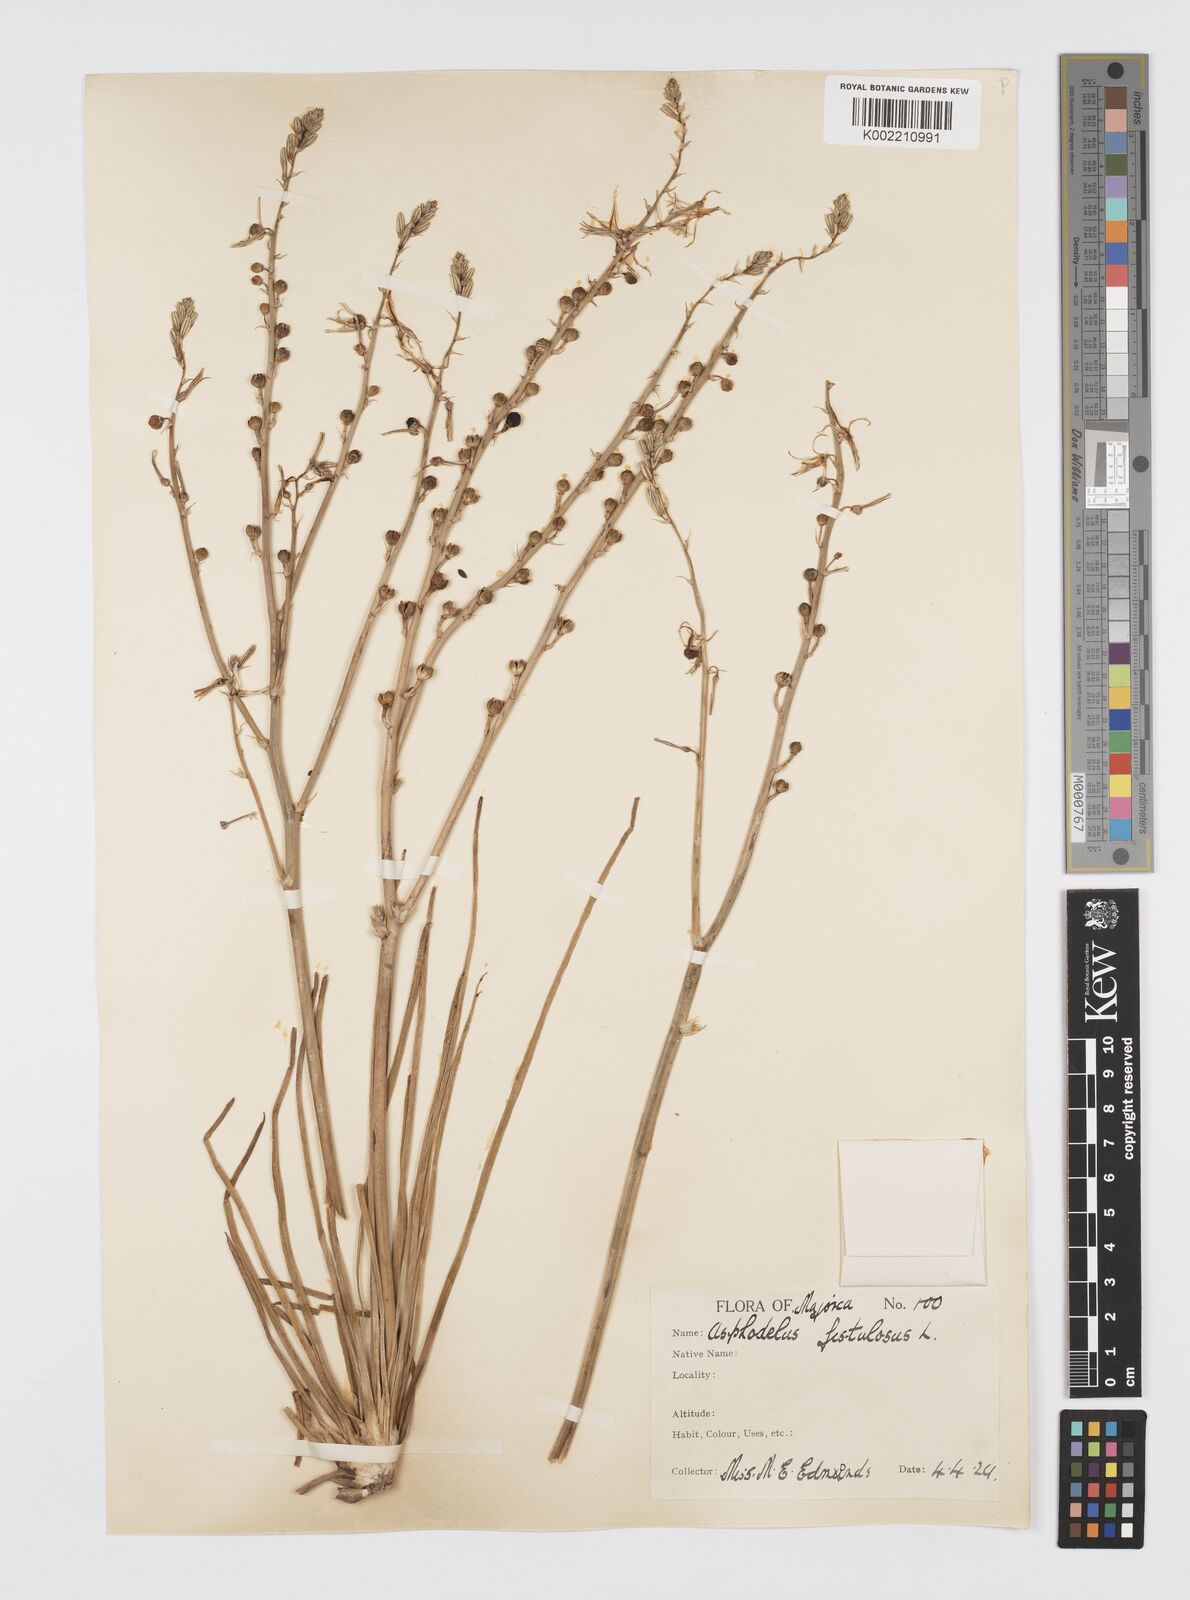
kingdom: Plantae
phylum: Tracheophyta
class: Liliopsida
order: Asparagales
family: Asphodelaceae
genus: Asphodelus
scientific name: Asphodelus fistulosus
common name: Onionweed
